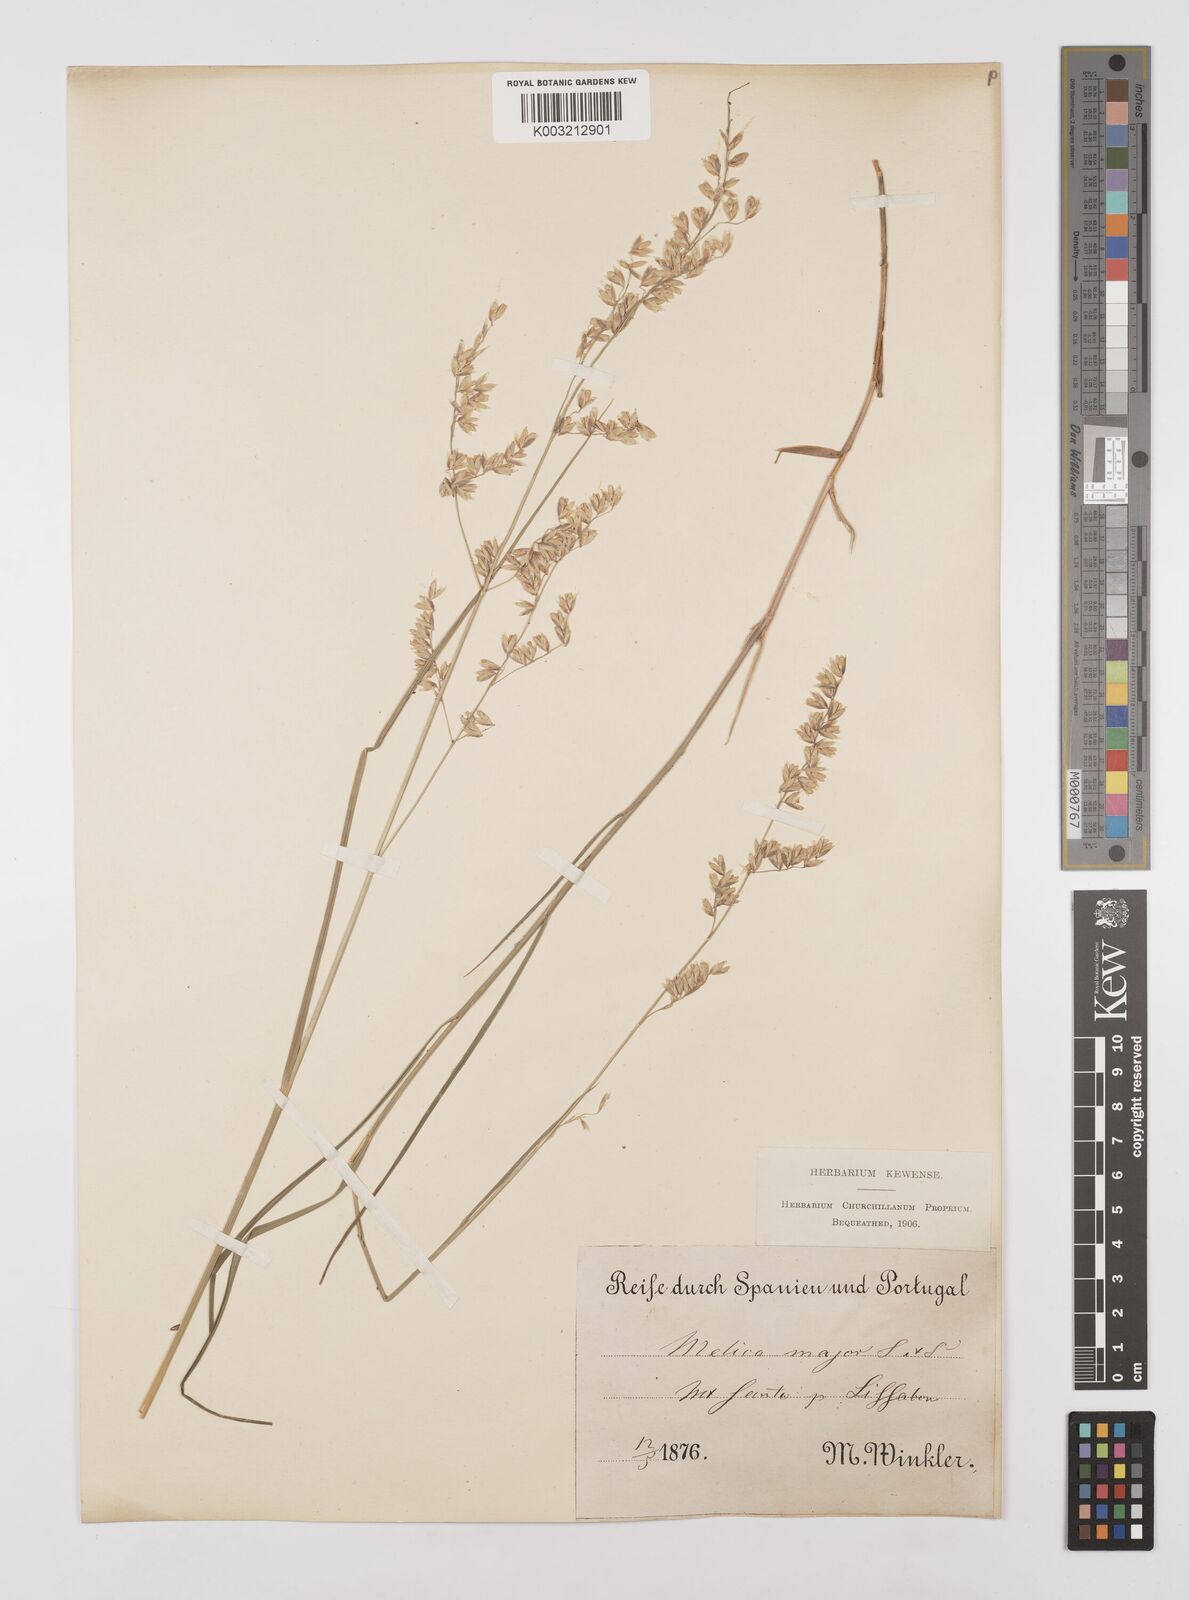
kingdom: Plantae
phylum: Tracheophyta
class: Liliopsida
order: Poales
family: Poaceae
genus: Melica
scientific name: Melica minuta
